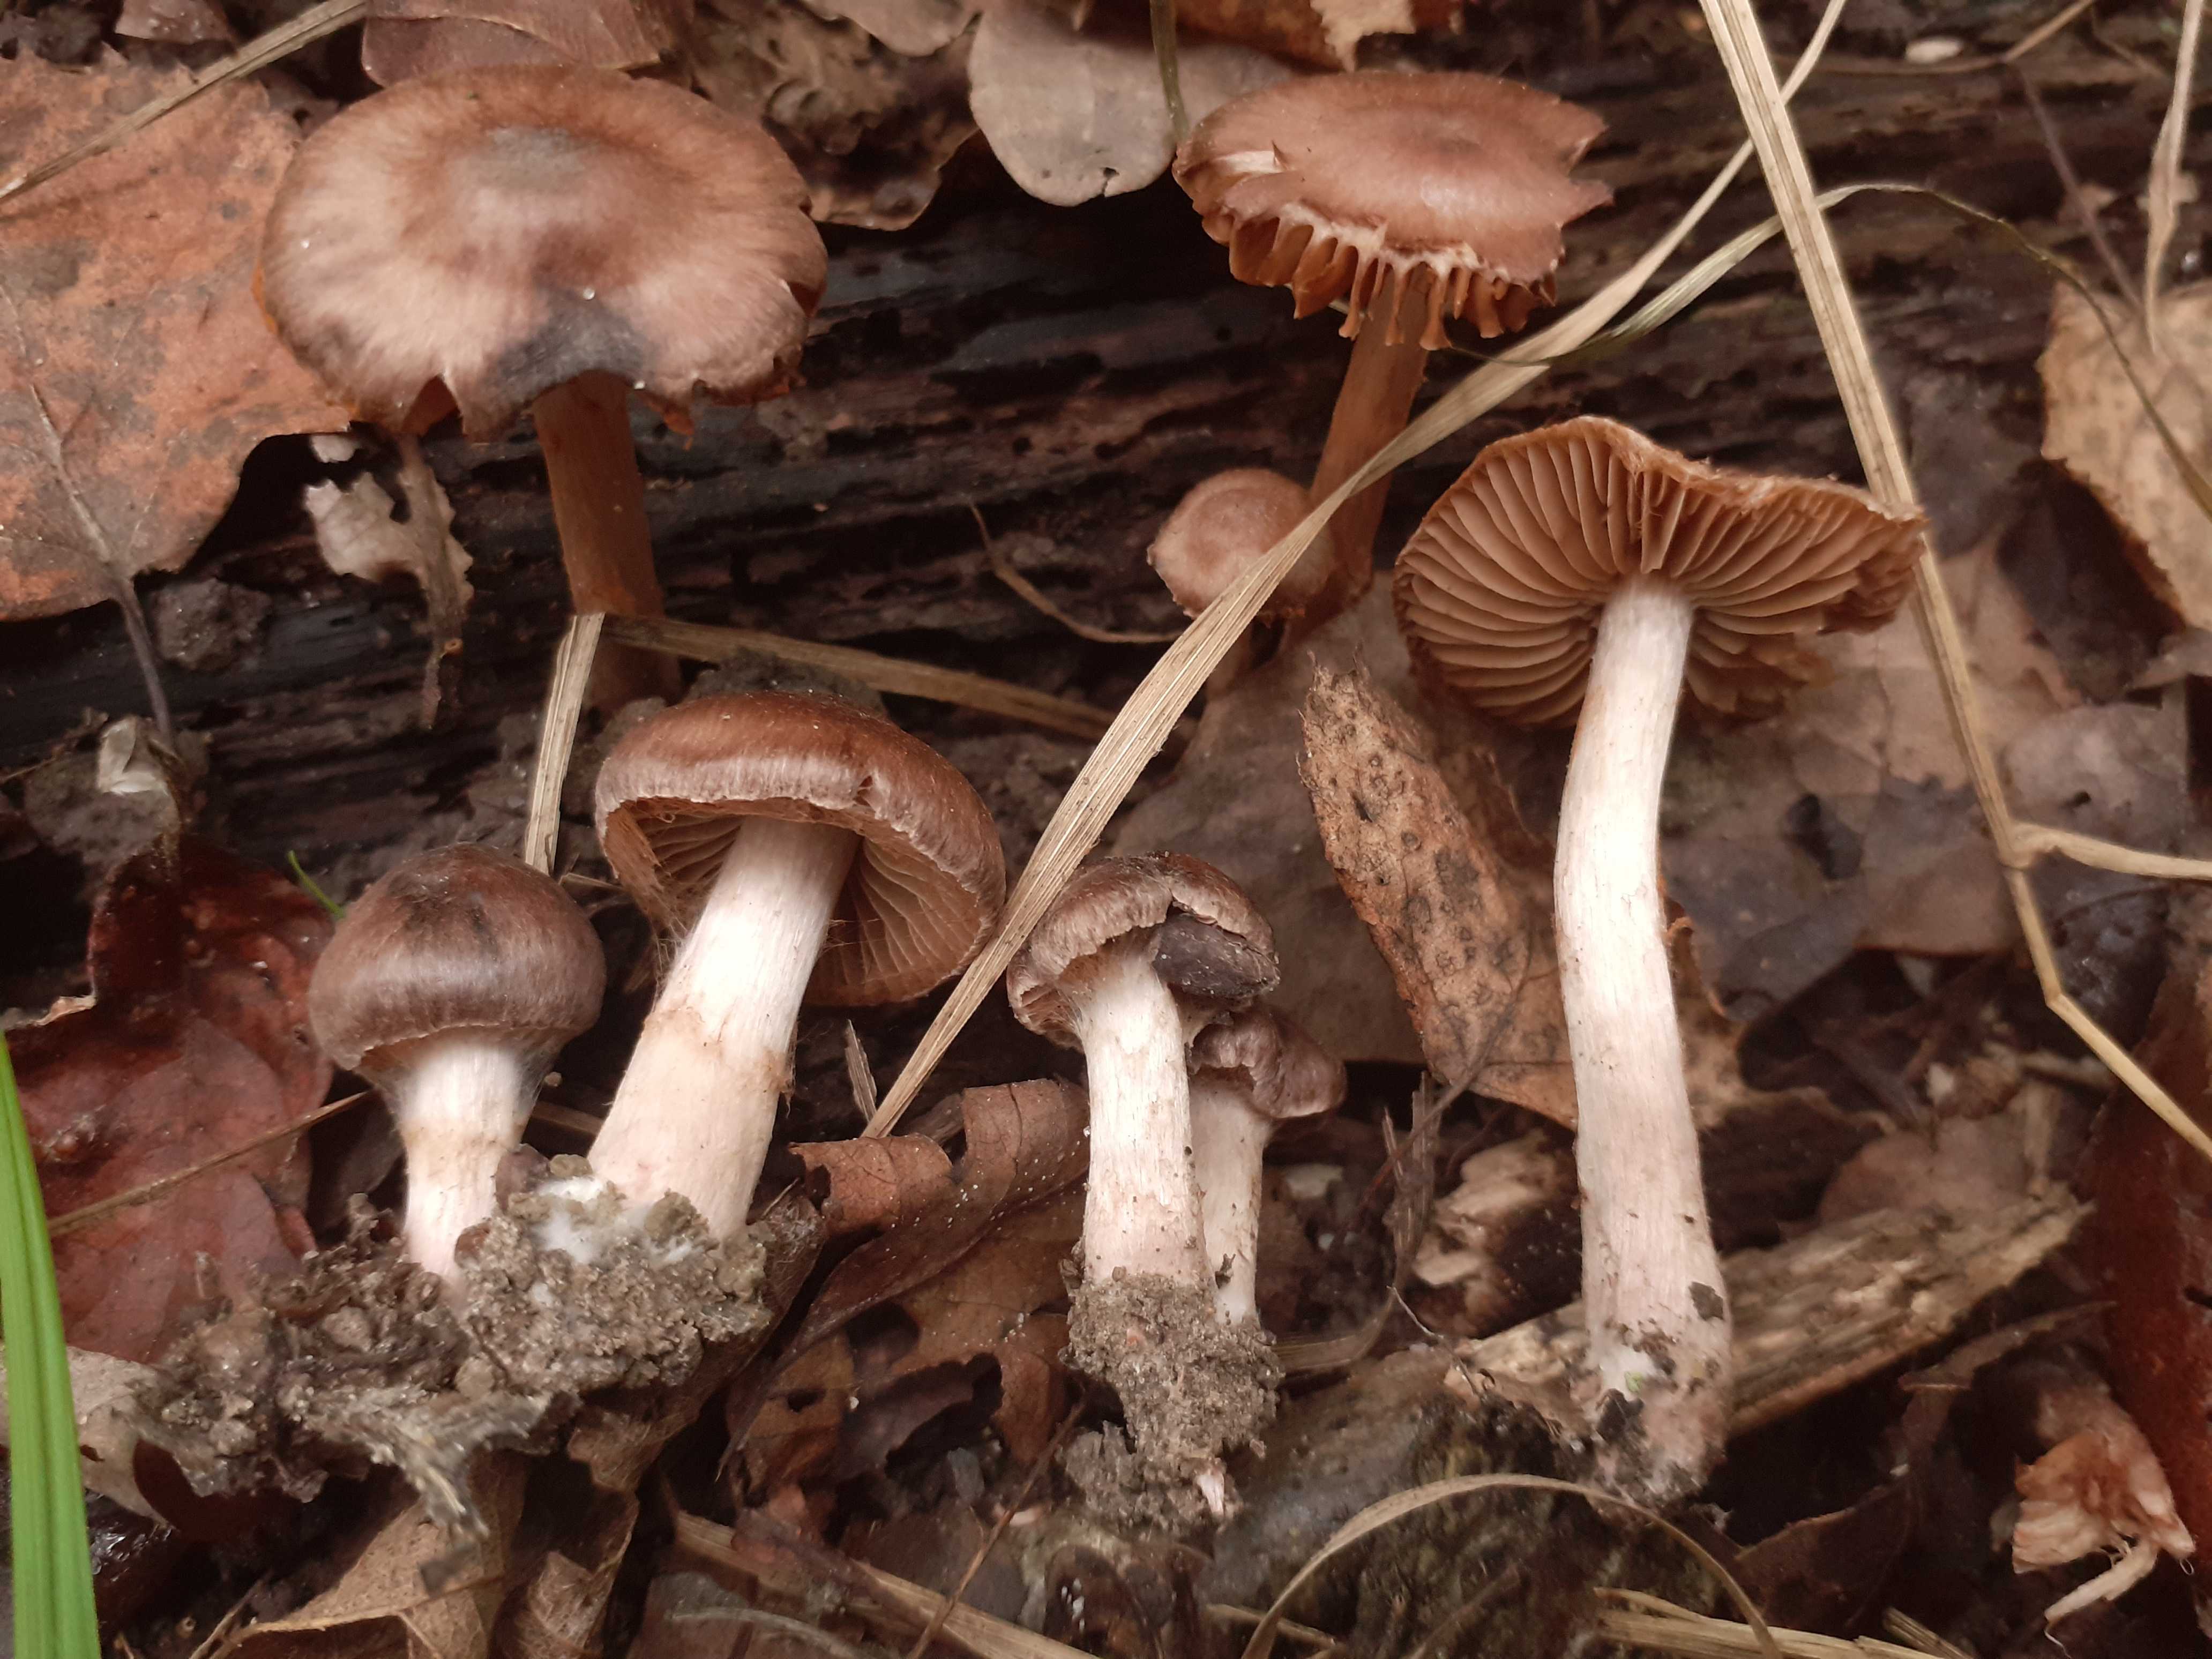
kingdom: Fungi
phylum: Basidiomycota
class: Agaricomycetes
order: Agaricales
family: Cortinariaceae
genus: Cortinarius
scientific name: Cortinarius caliginosus
